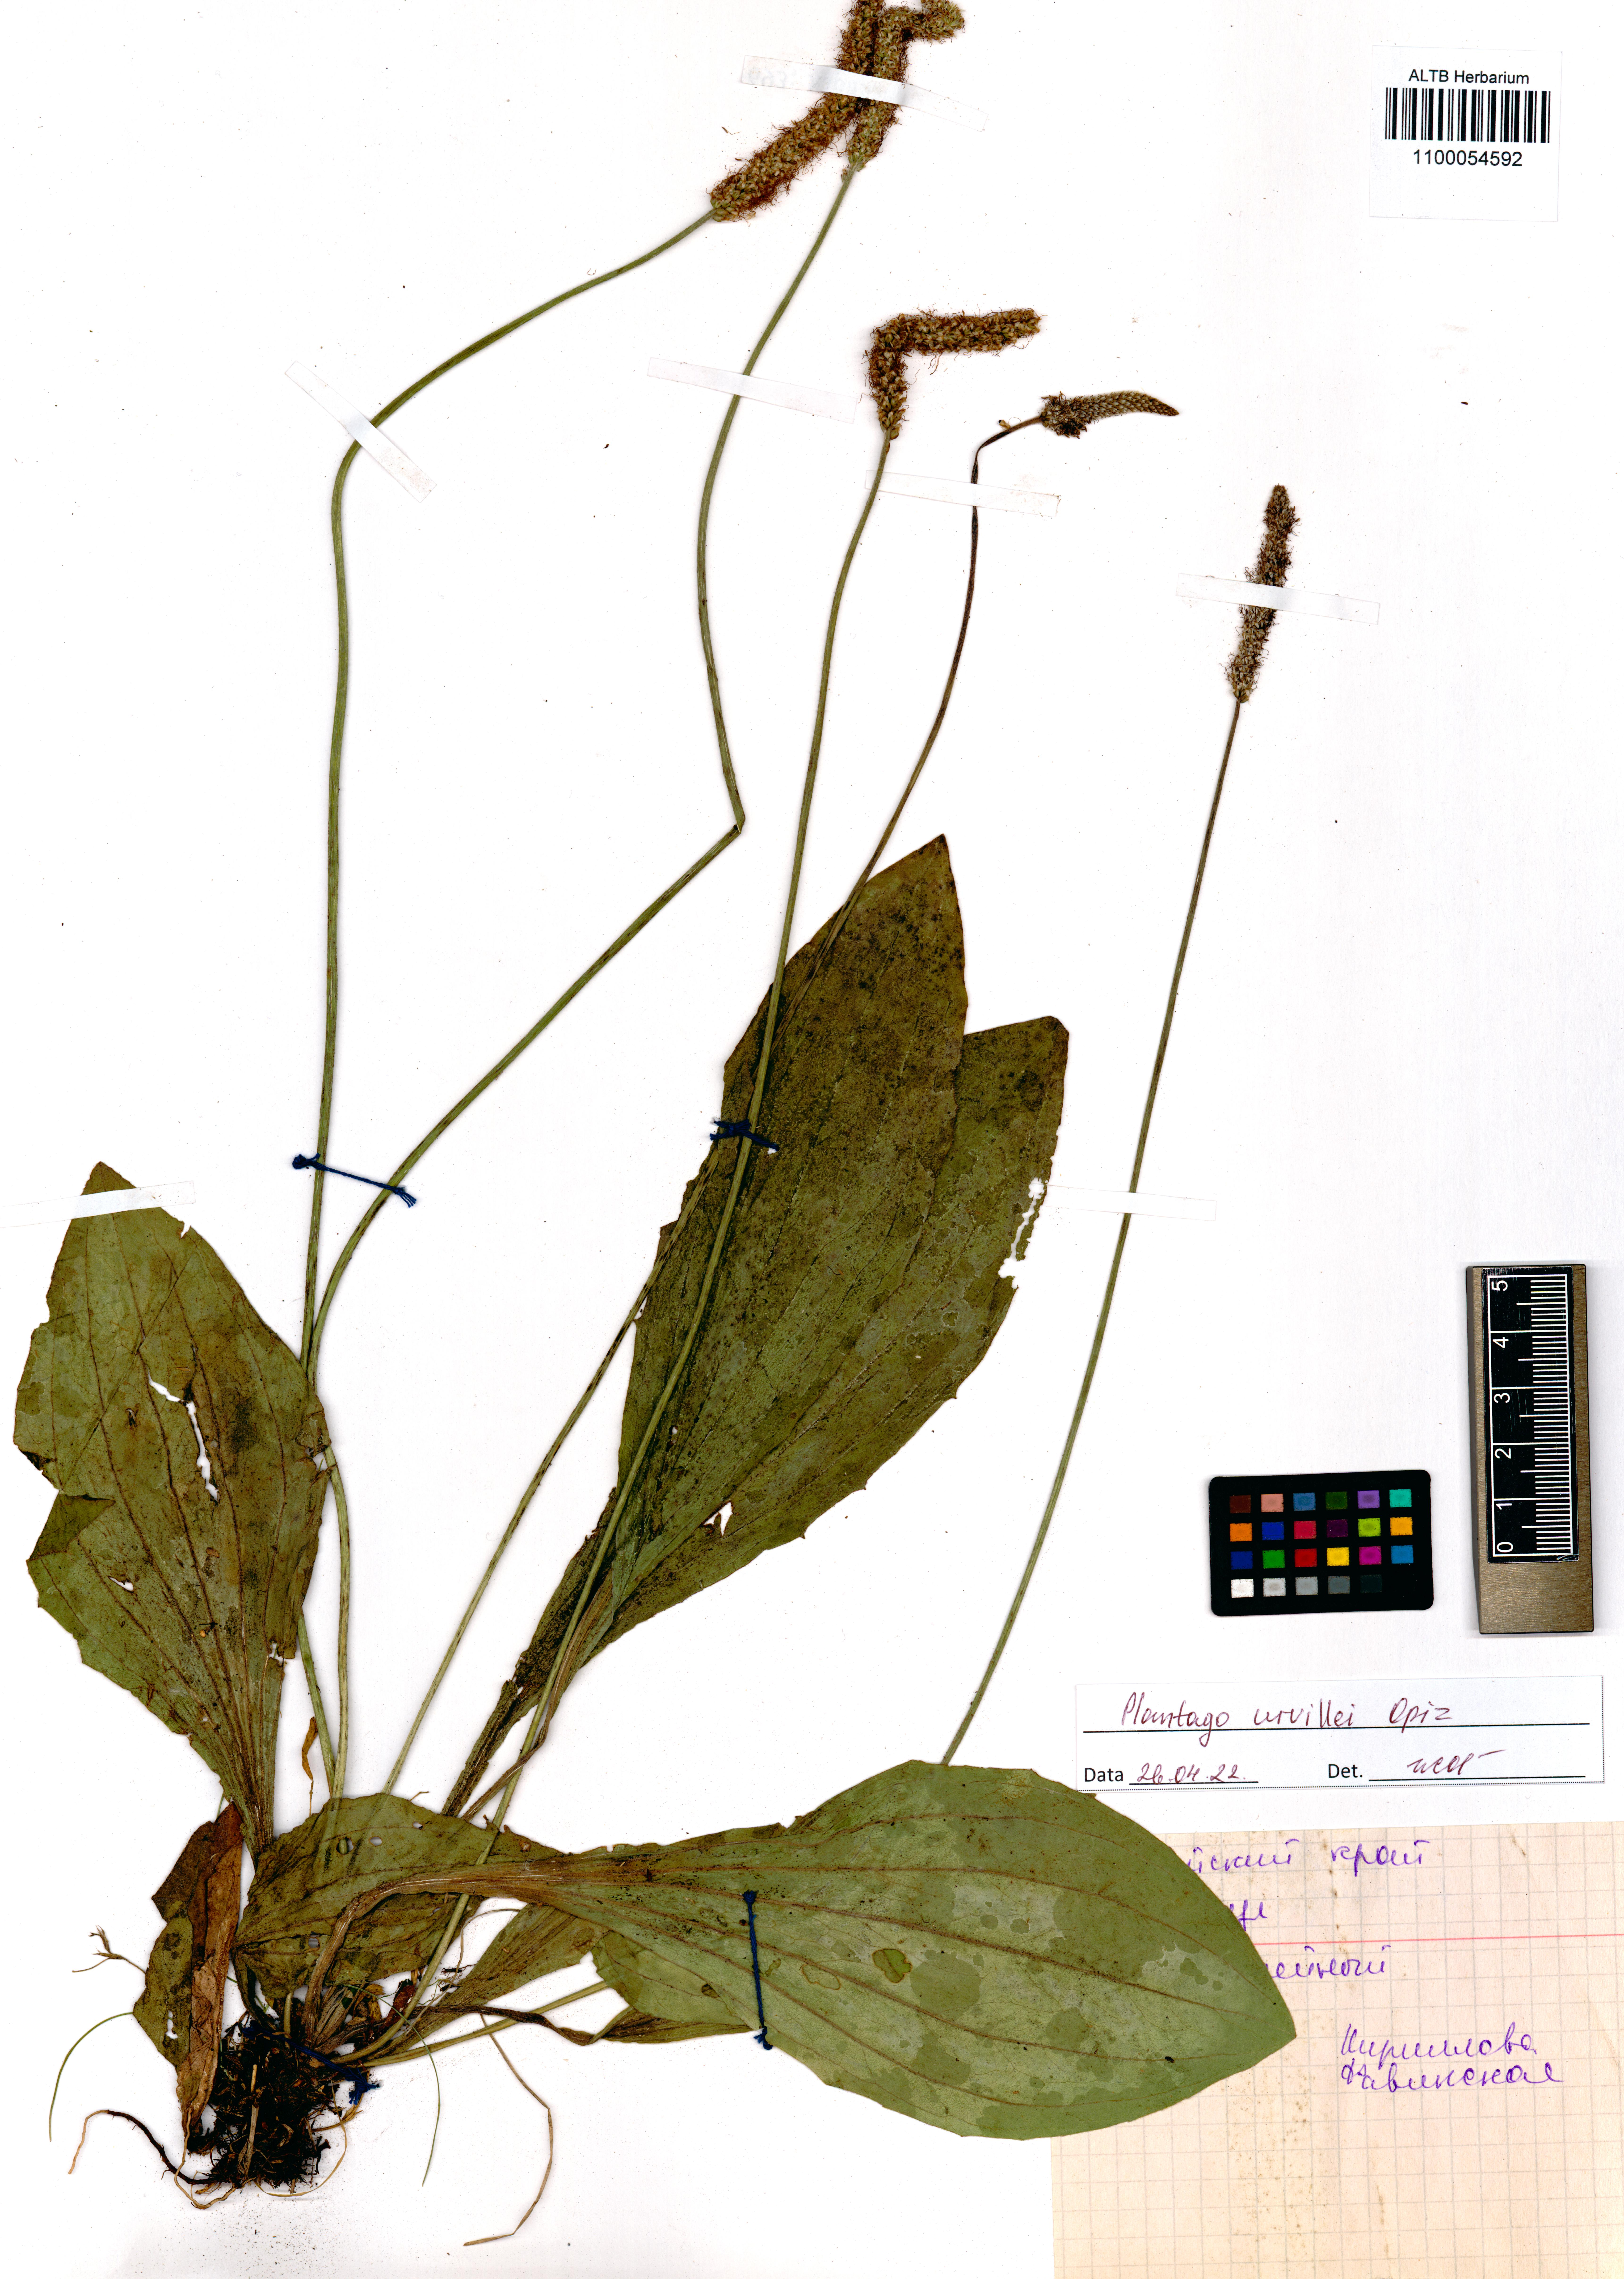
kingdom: Plantae
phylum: Tracheophyta
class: Magnoliopsida
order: Lamiales
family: Plantaginaceae
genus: Plantago
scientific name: Plantago urvillei
